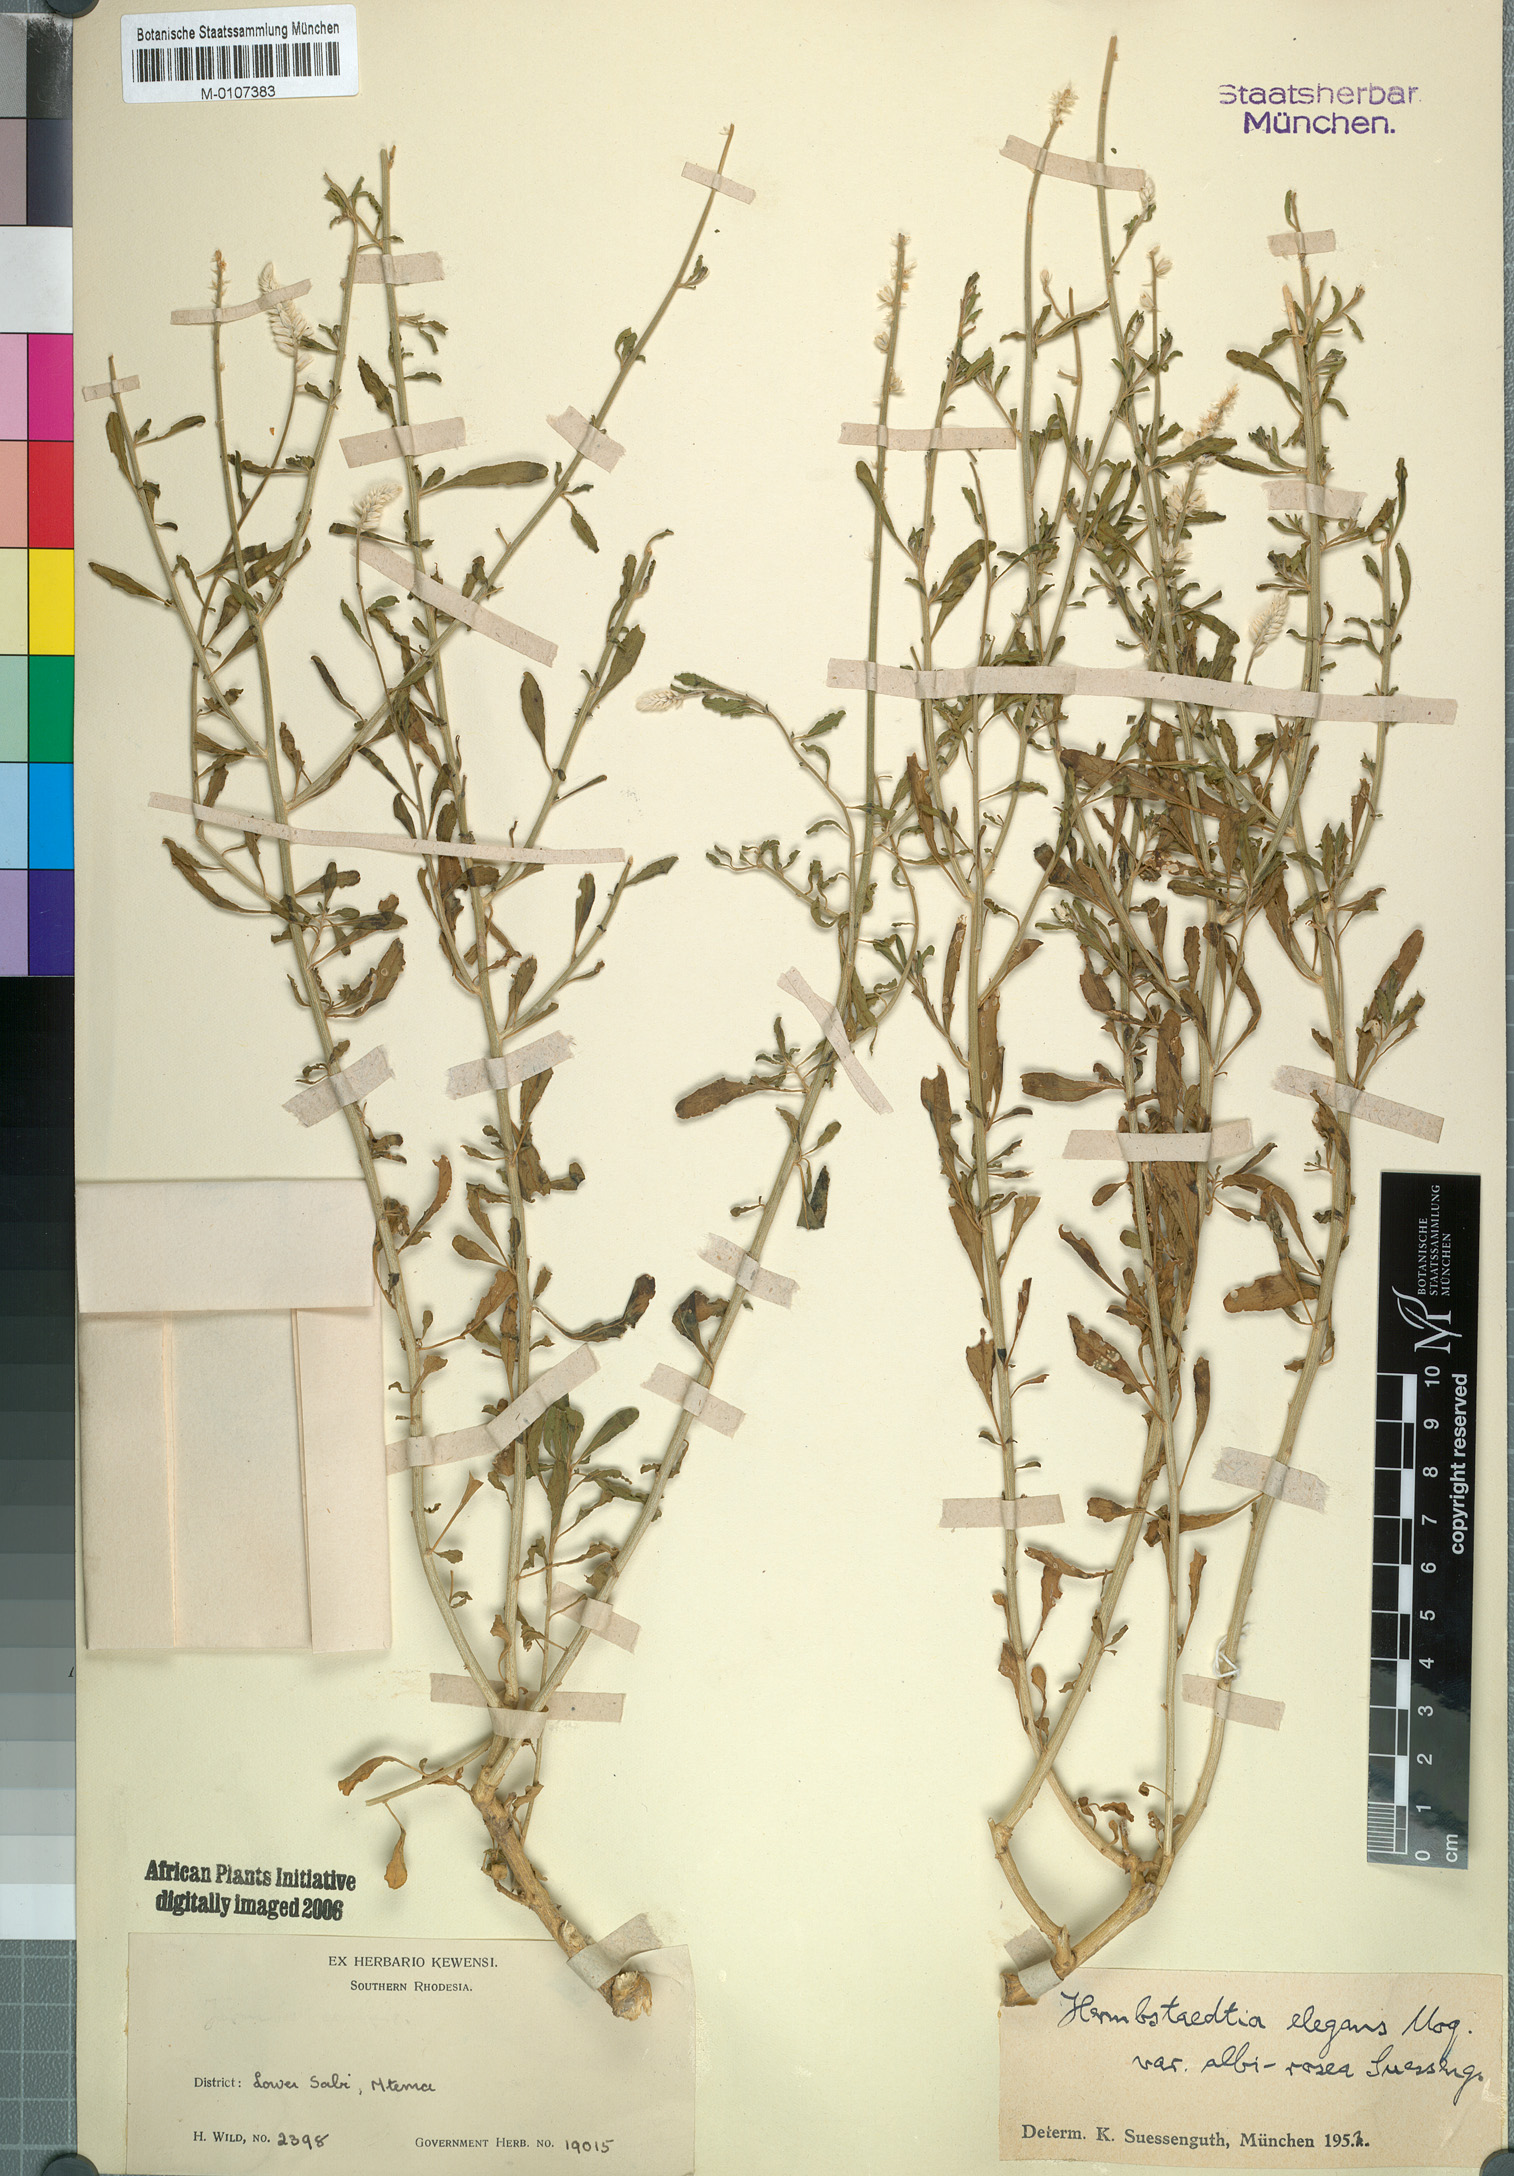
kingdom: Plantae
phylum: Tracheophyta
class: Magnoliopsida
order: Caryophyllales
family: Amaranthaceae
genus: Hermbstaedtia
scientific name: Hermbstaedtia odorata
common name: Guineaflower
